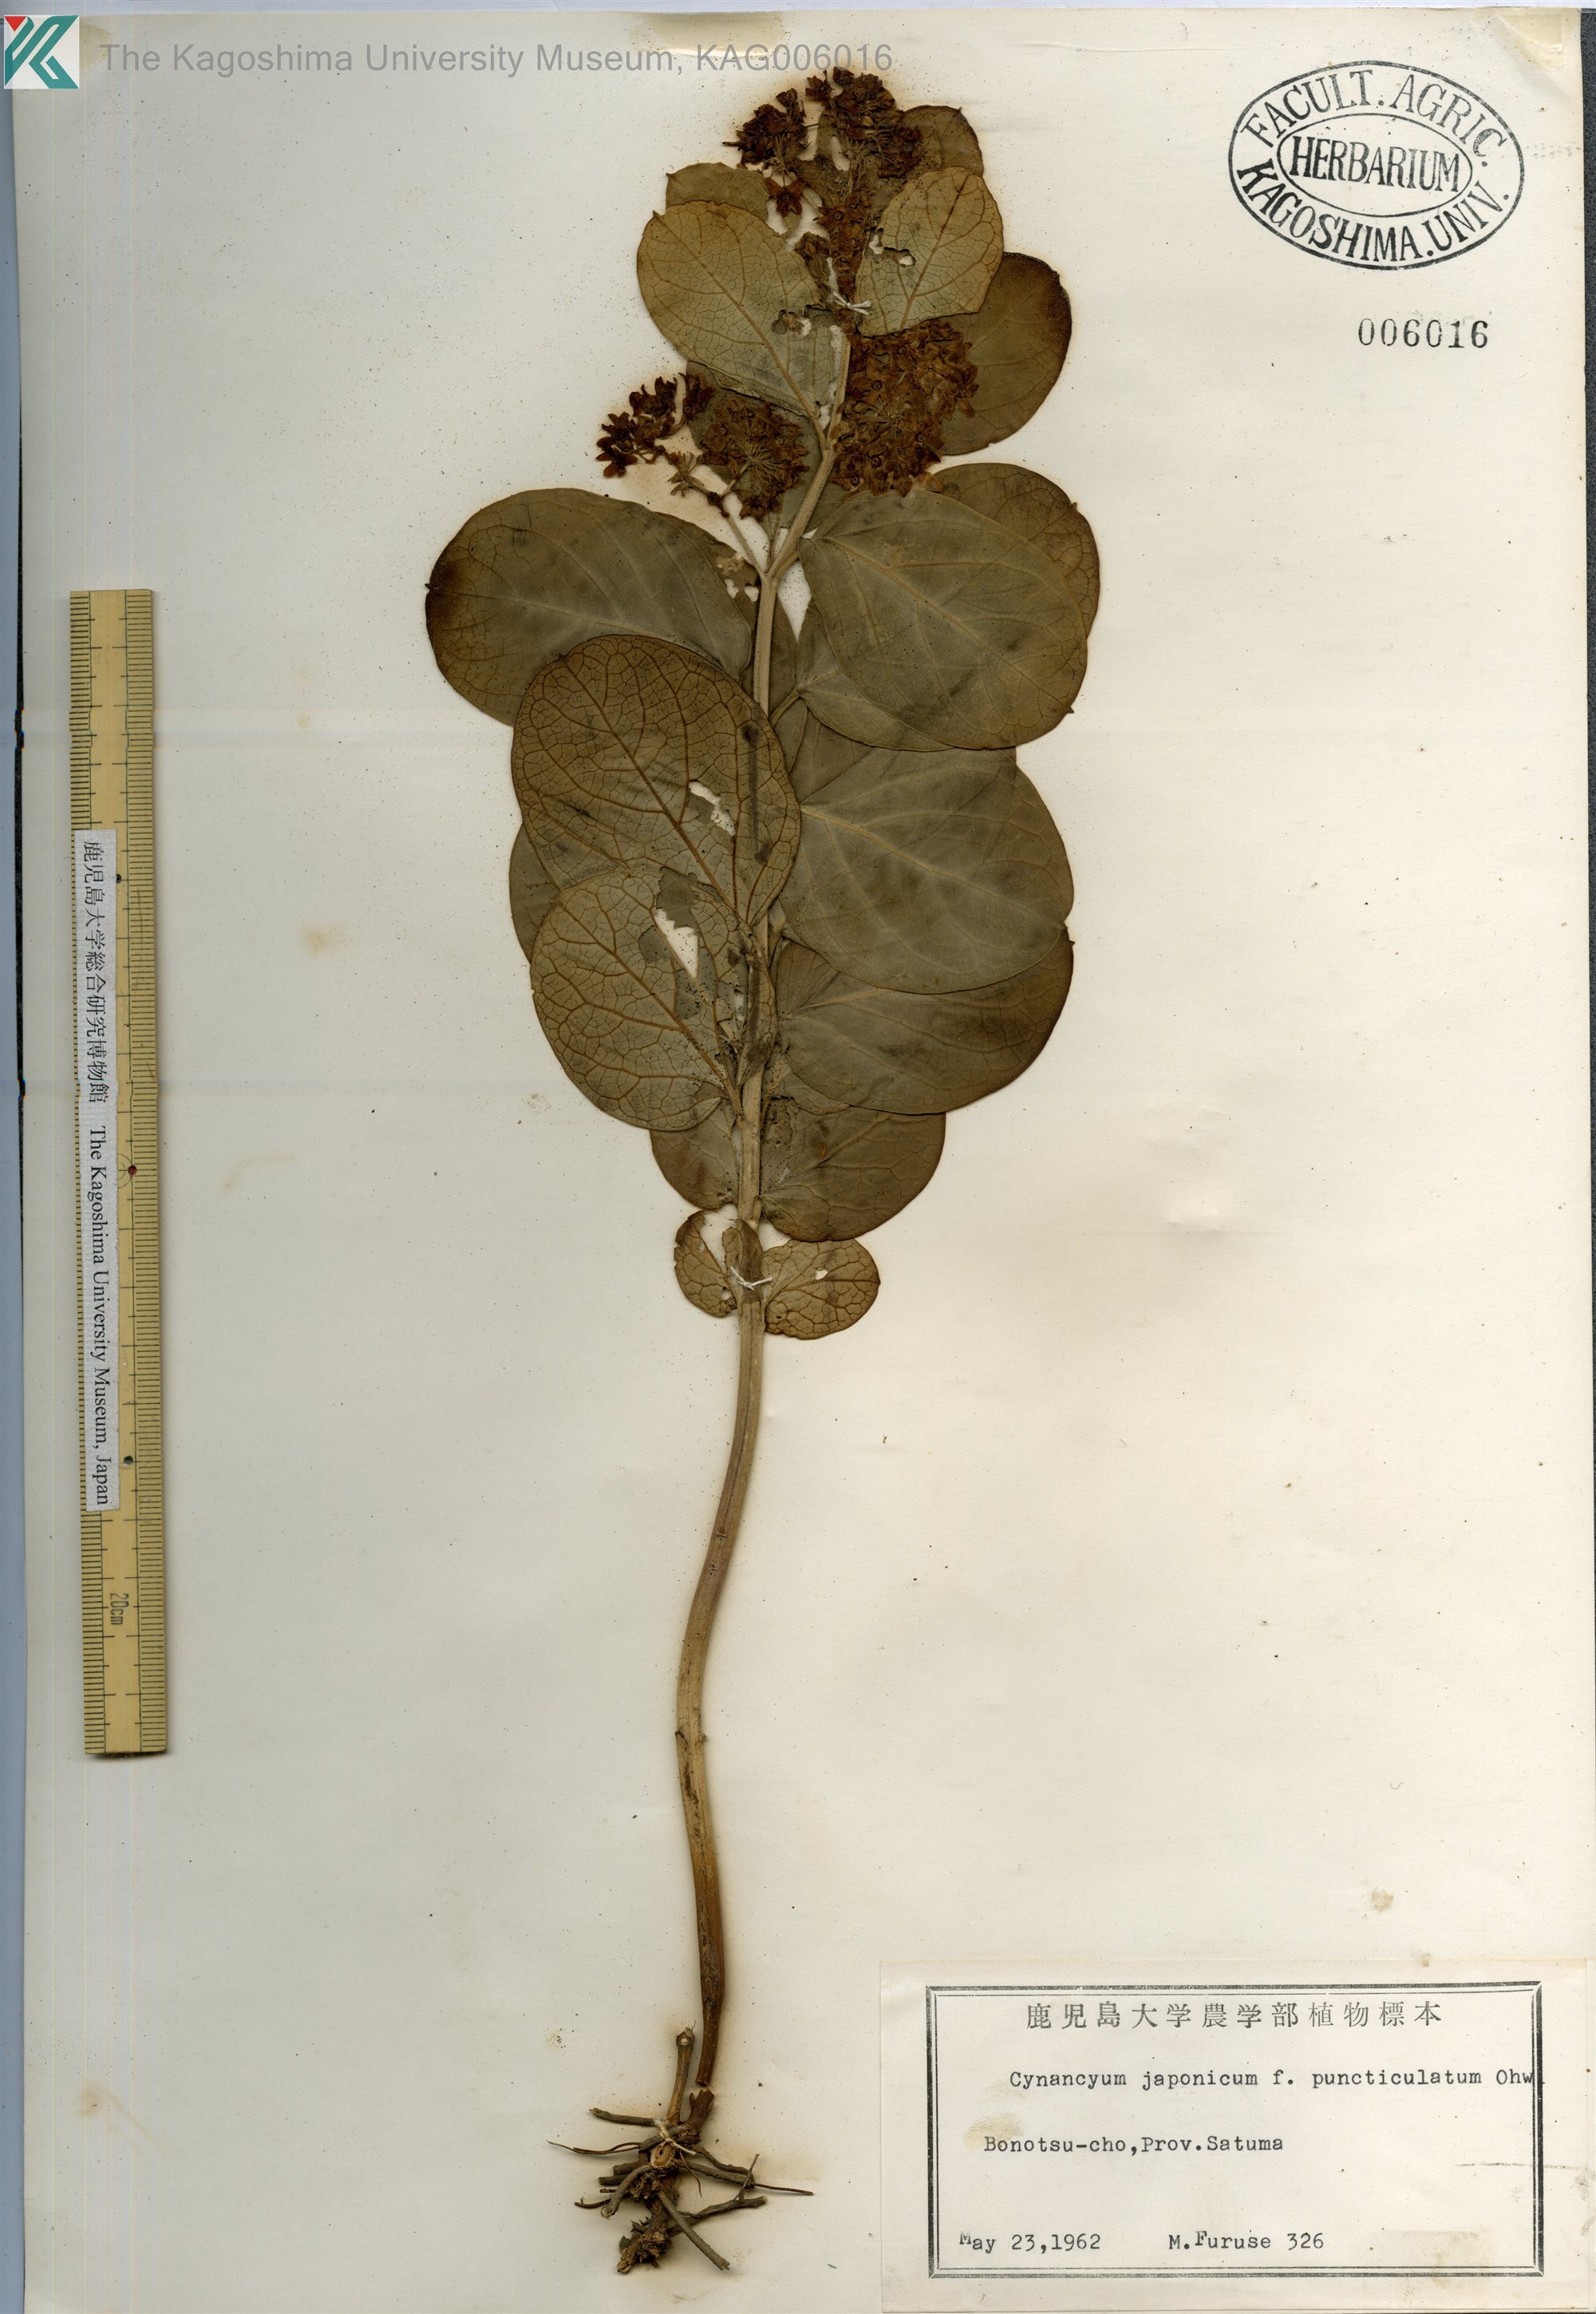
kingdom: Plantae
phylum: Tracheophyta
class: Magnoliopsida
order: Gentianales
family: Apocynaceae
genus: Vincetoxicum
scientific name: Vincetoxicum japonicum
